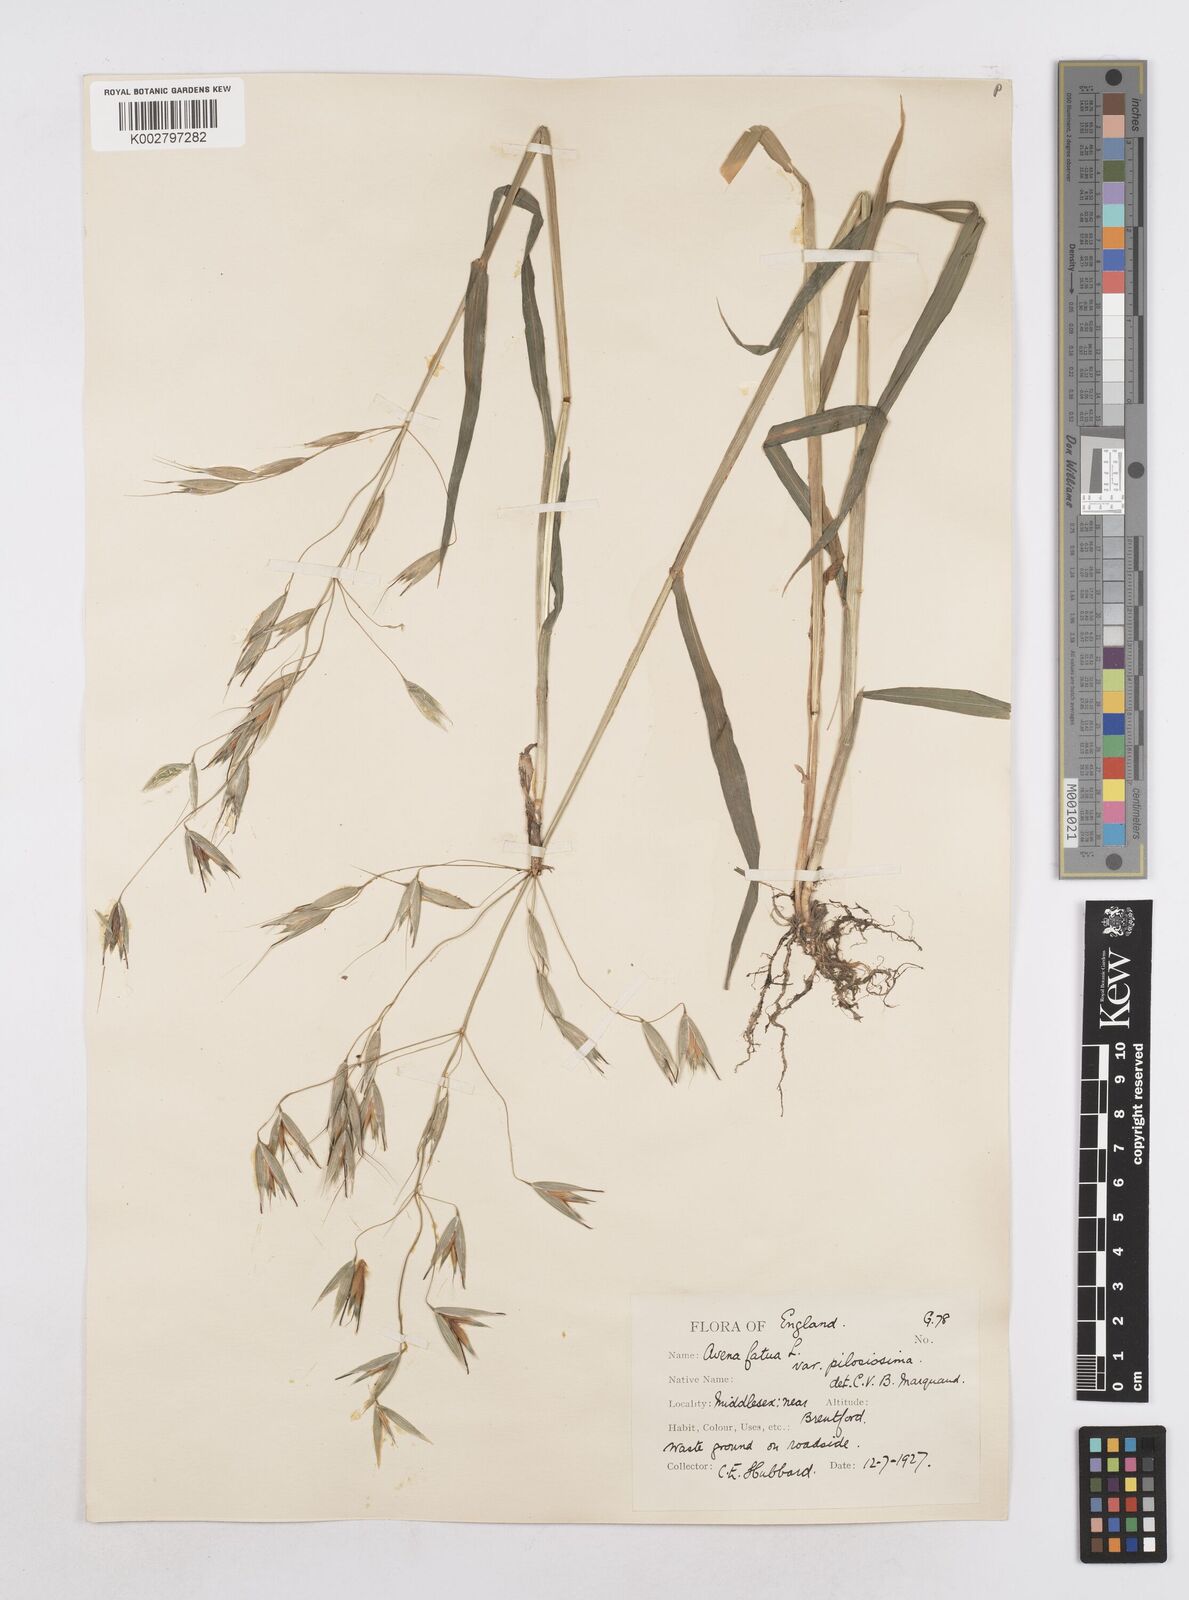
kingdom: Plantae
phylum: Tracheophyta
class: Liliopsida
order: Poales
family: Poaceae
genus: Avena
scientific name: Avena fatua
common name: Wild oat
